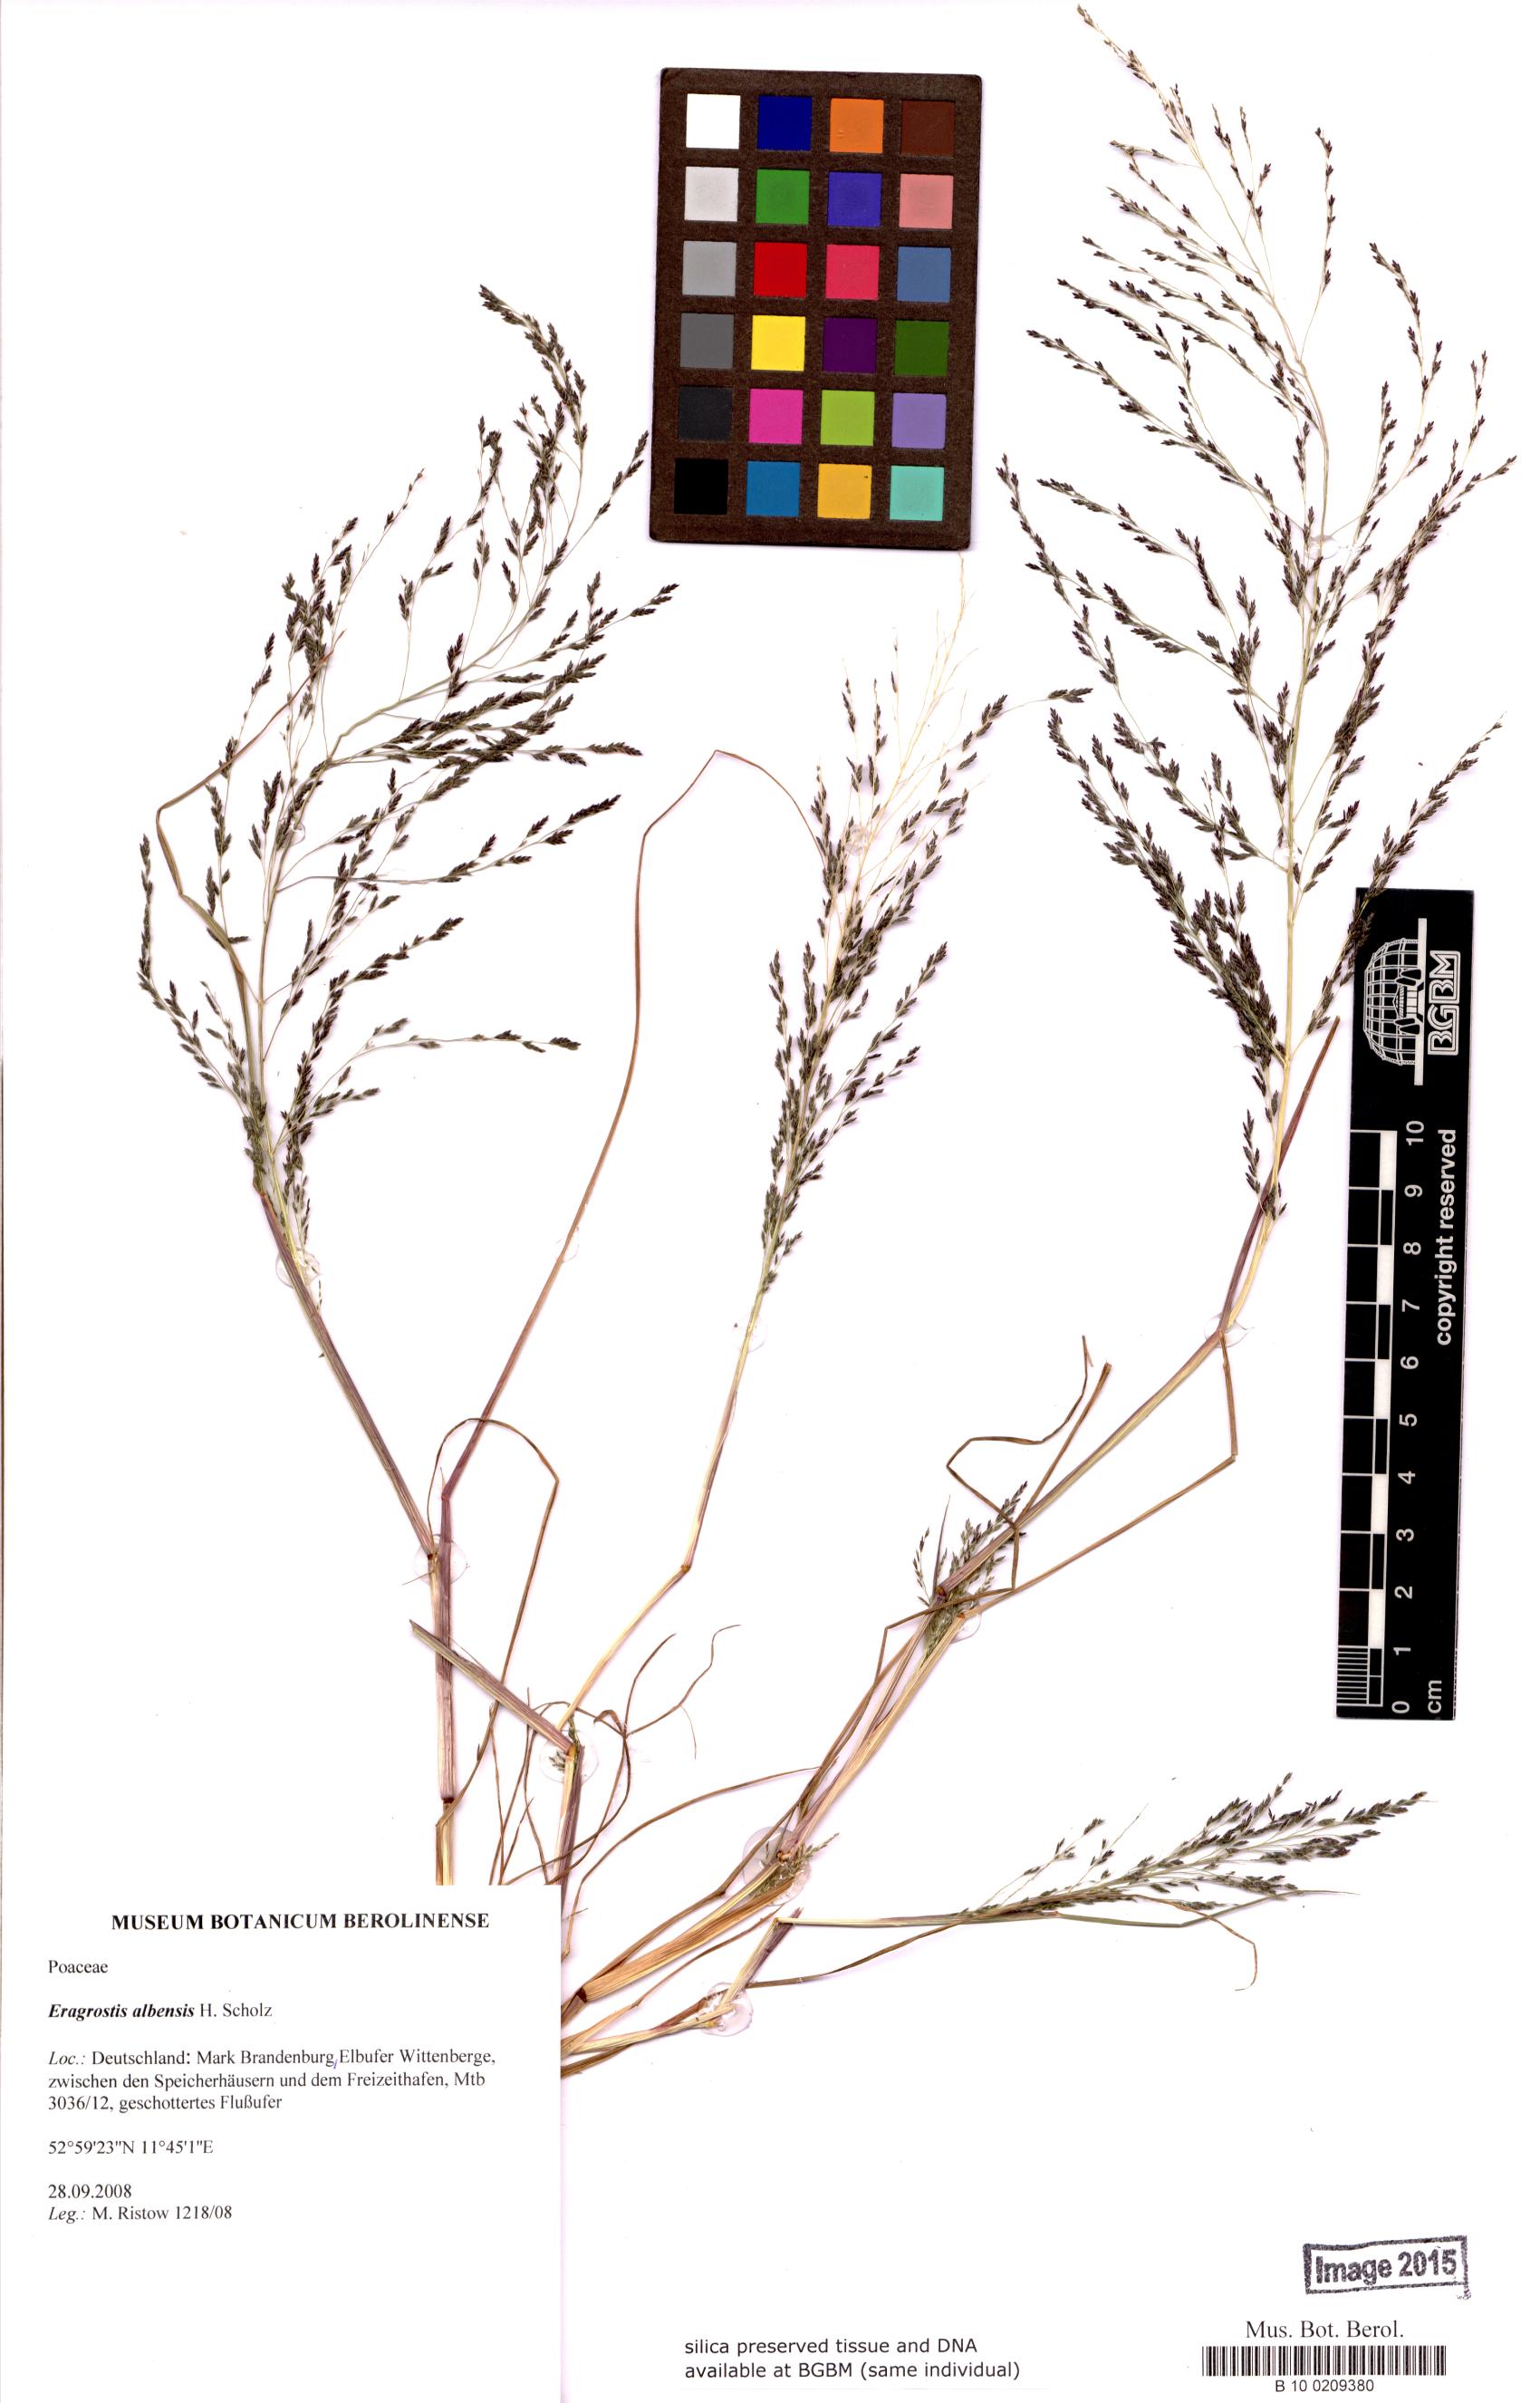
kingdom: Plantae
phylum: Tracheophyta
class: Liliopsida
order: Poales
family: Poaceae
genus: Eragrostis
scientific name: Eragrostis pilosa
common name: Indian lovegrass
